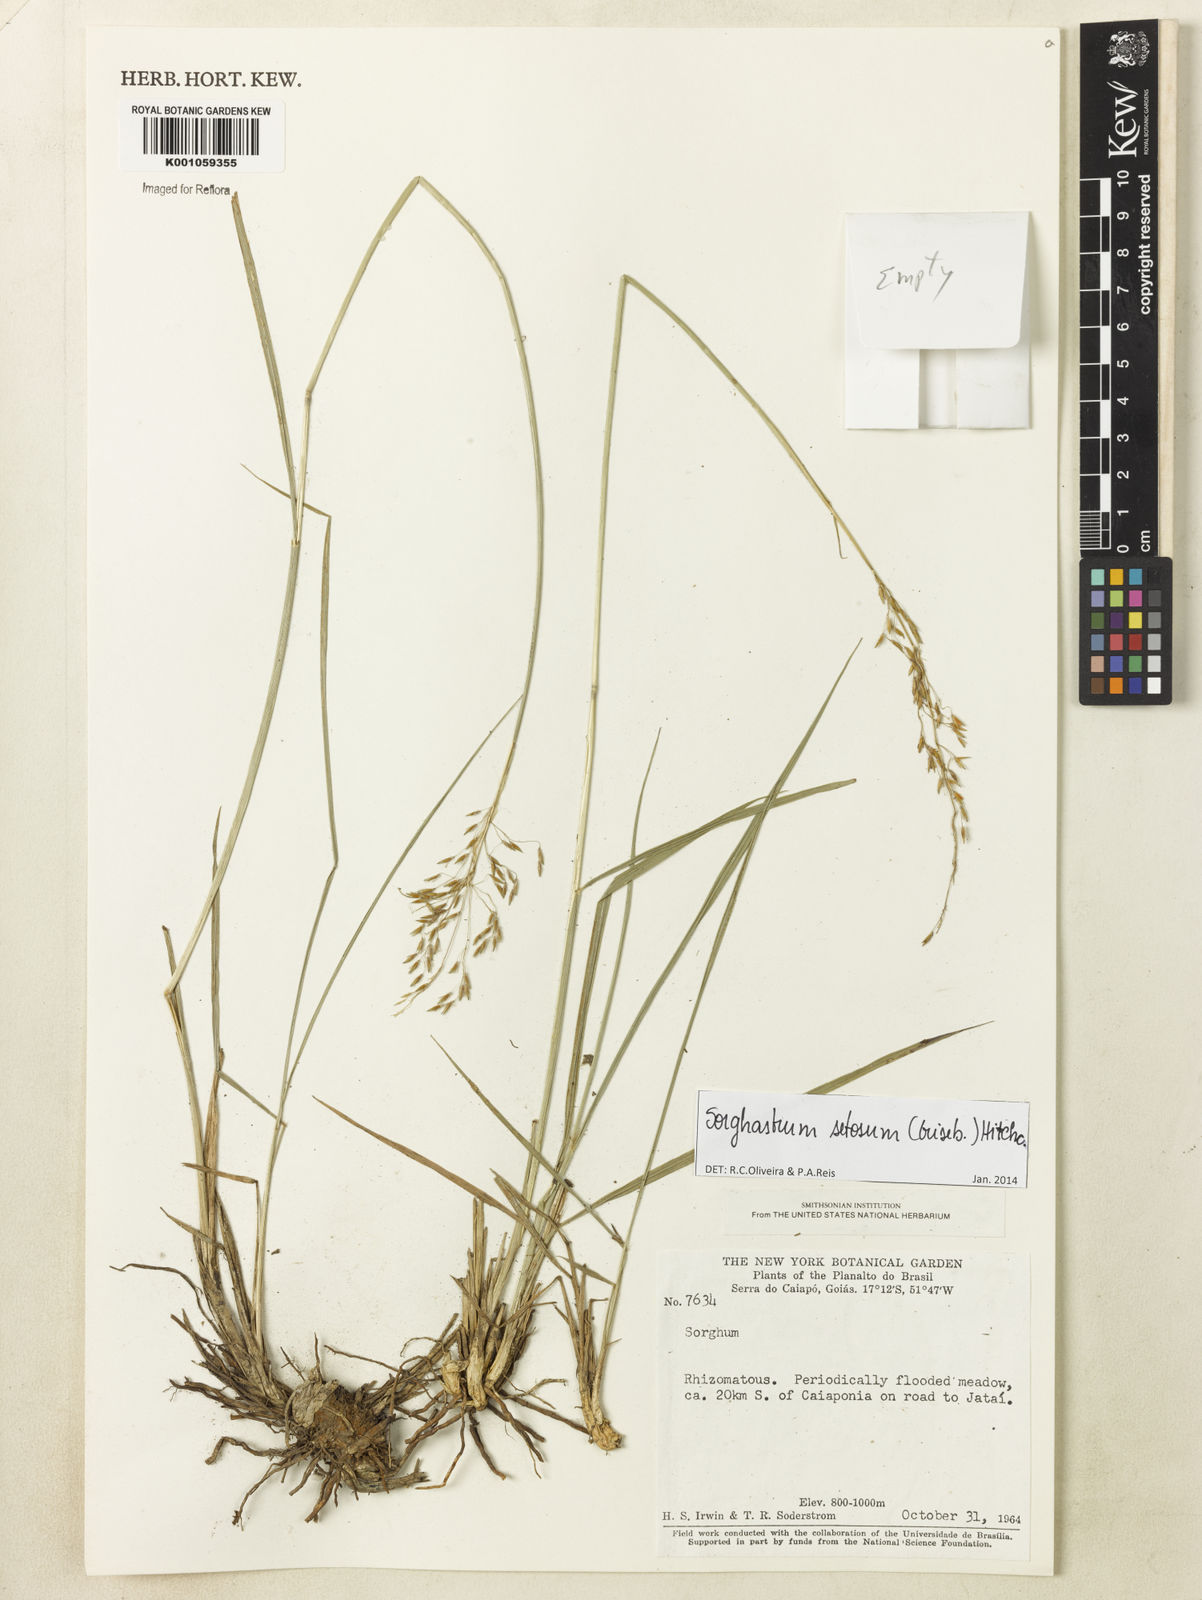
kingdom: Plantae
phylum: Tracheophyta
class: Liliopsida
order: Poales
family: Poaceae
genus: Sorghastrum
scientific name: Sorghastrum setosum
